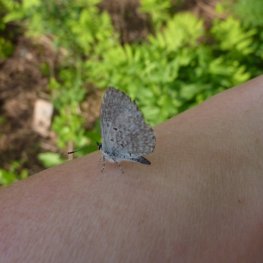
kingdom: Animalia
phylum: Arthropoda
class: Insecta
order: Lepidoptera
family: Lycaenidae
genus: Celastrina
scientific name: Celastrina lucia
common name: Northern Spring Azure
